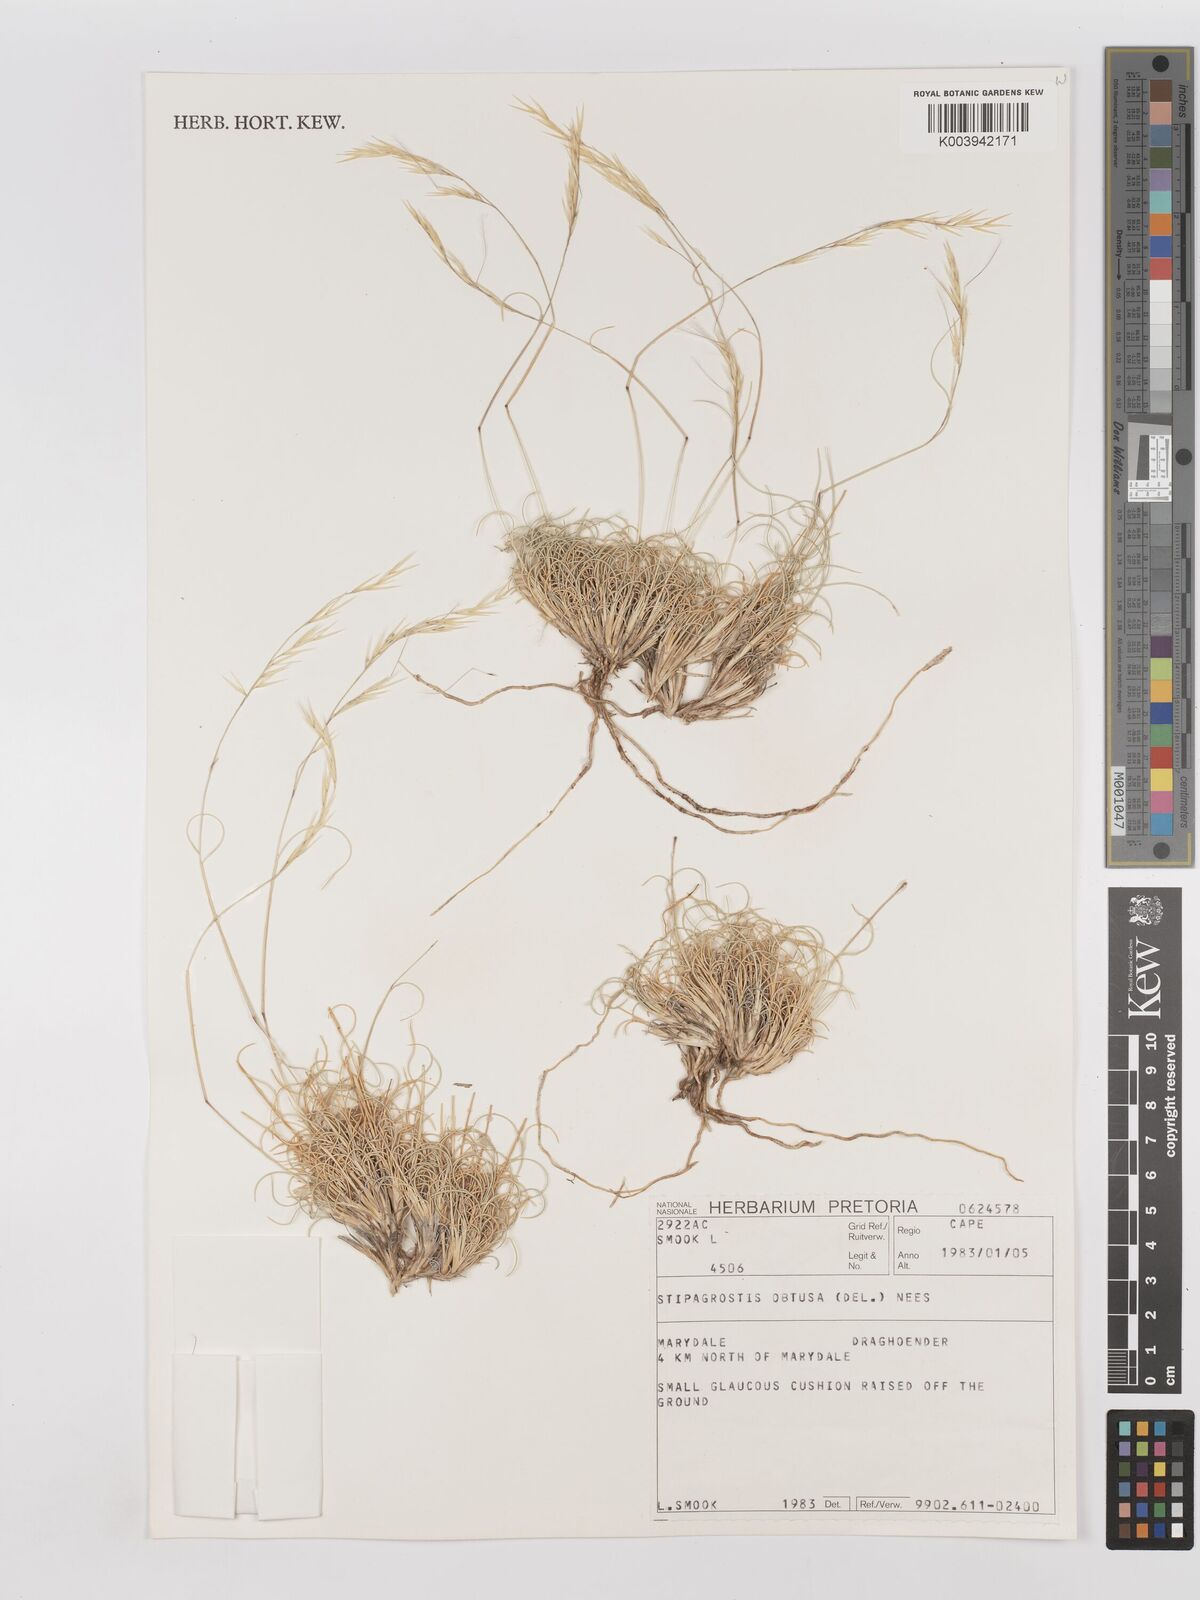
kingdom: Plantae
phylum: Tracheophyta
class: Liliopsida
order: Poales
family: Poaceae
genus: Stipagrostis
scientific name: Stipagrostis obtusa
